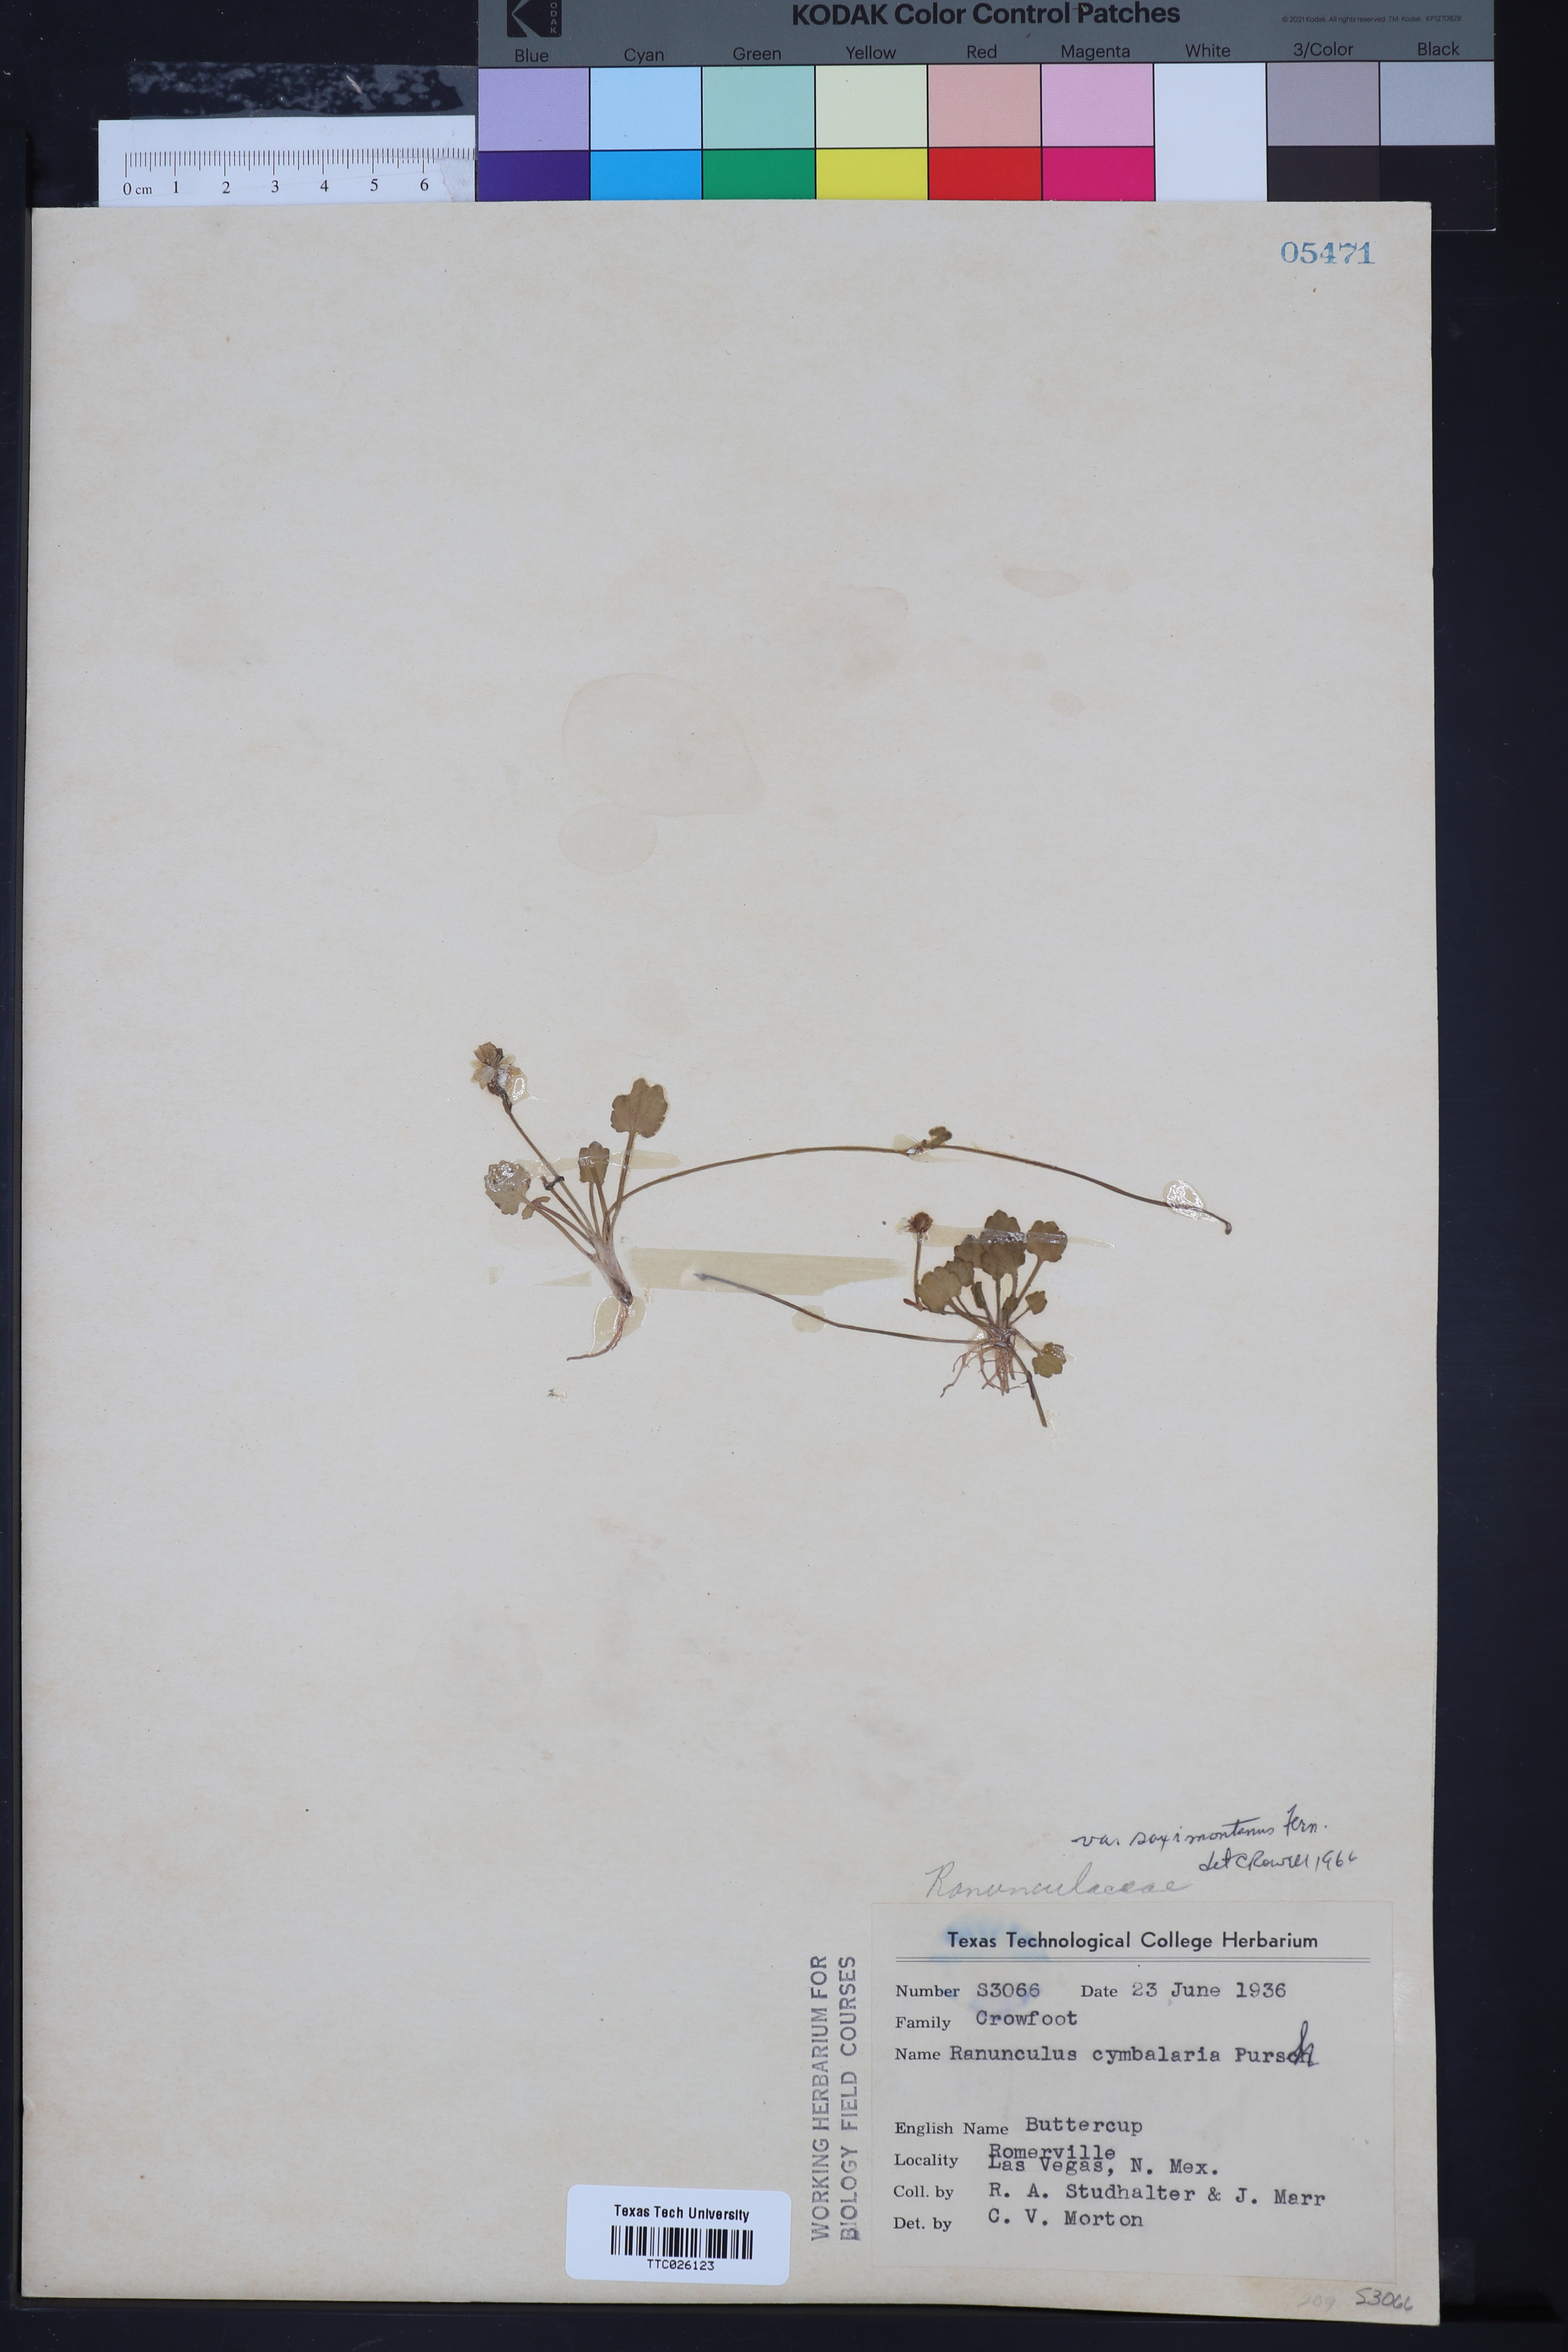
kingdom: Plantae
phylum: Tracheophyta
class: Magnoliopsida
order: Ranunculales
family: Ranunculaceae
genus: Halerpestes
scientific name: Halerpestes cymbalaria
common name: Seaside crowfoot
